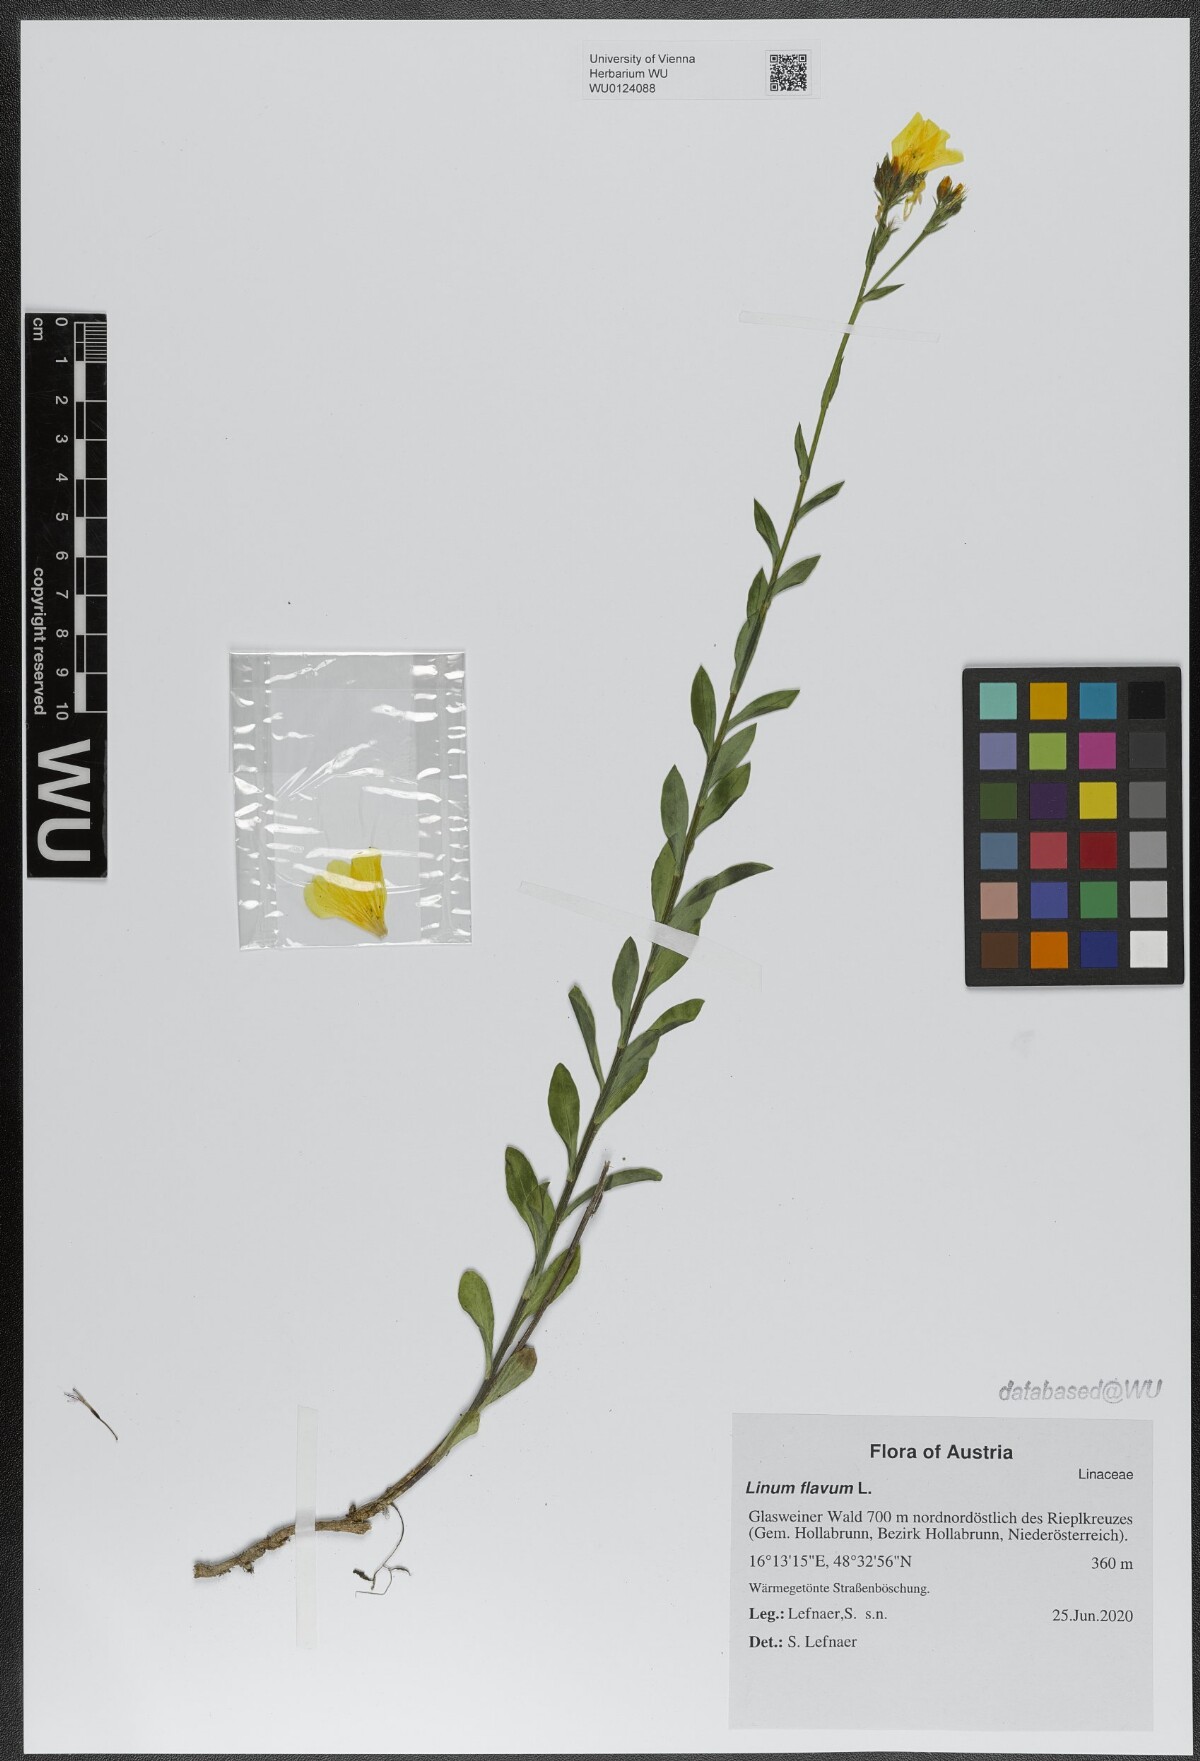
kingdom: Plantae
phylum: Tracheophyta
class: Magnoliopsida
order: Malpighiales
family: Linaceae
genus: Linum
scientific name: Linum flavum
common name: Yellow flax
